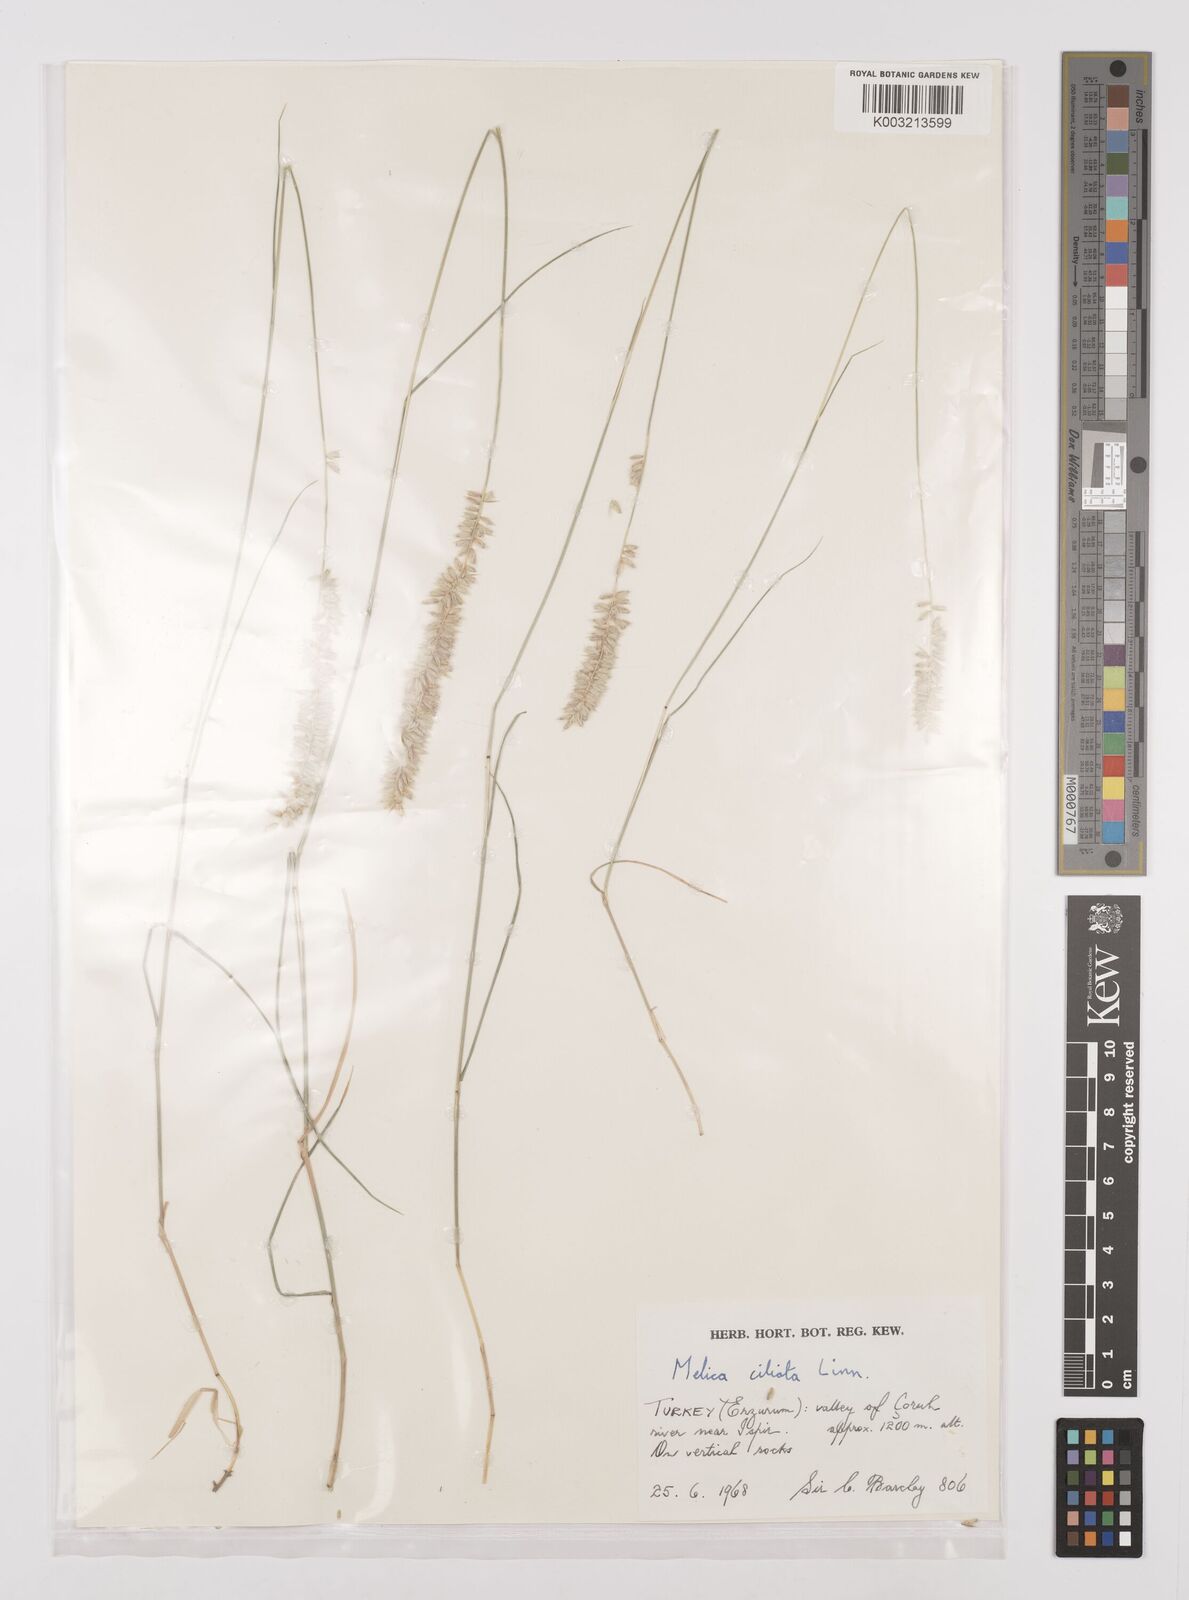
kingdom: Plantae
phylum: Tracheophyta
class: Liliopsida
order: Poales
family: Poaceae
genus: Melica
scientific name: Melica ciliata
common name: Hairy melicgrass
